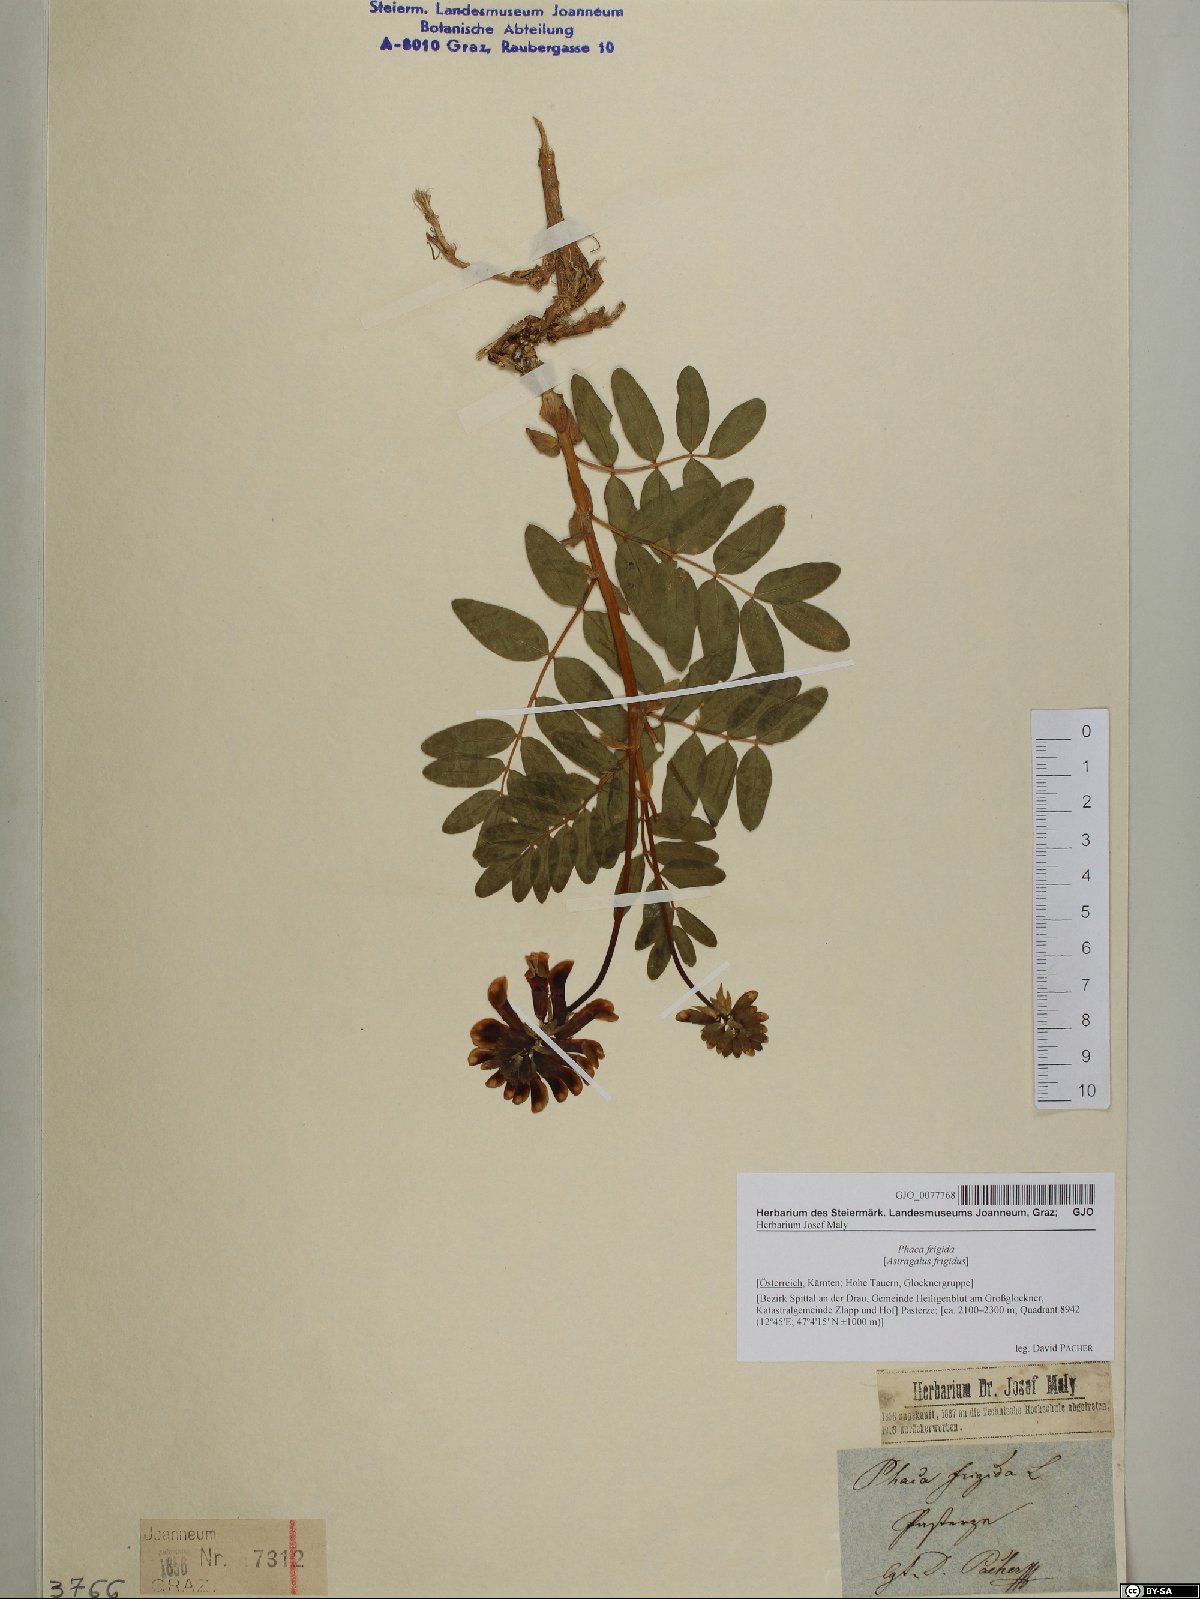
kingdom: Plantae
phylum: Tracheophyta
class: Magnoliopsida
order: Fabales
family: Fabaceae
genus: Astragalus
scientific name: Astragalus frigidus
